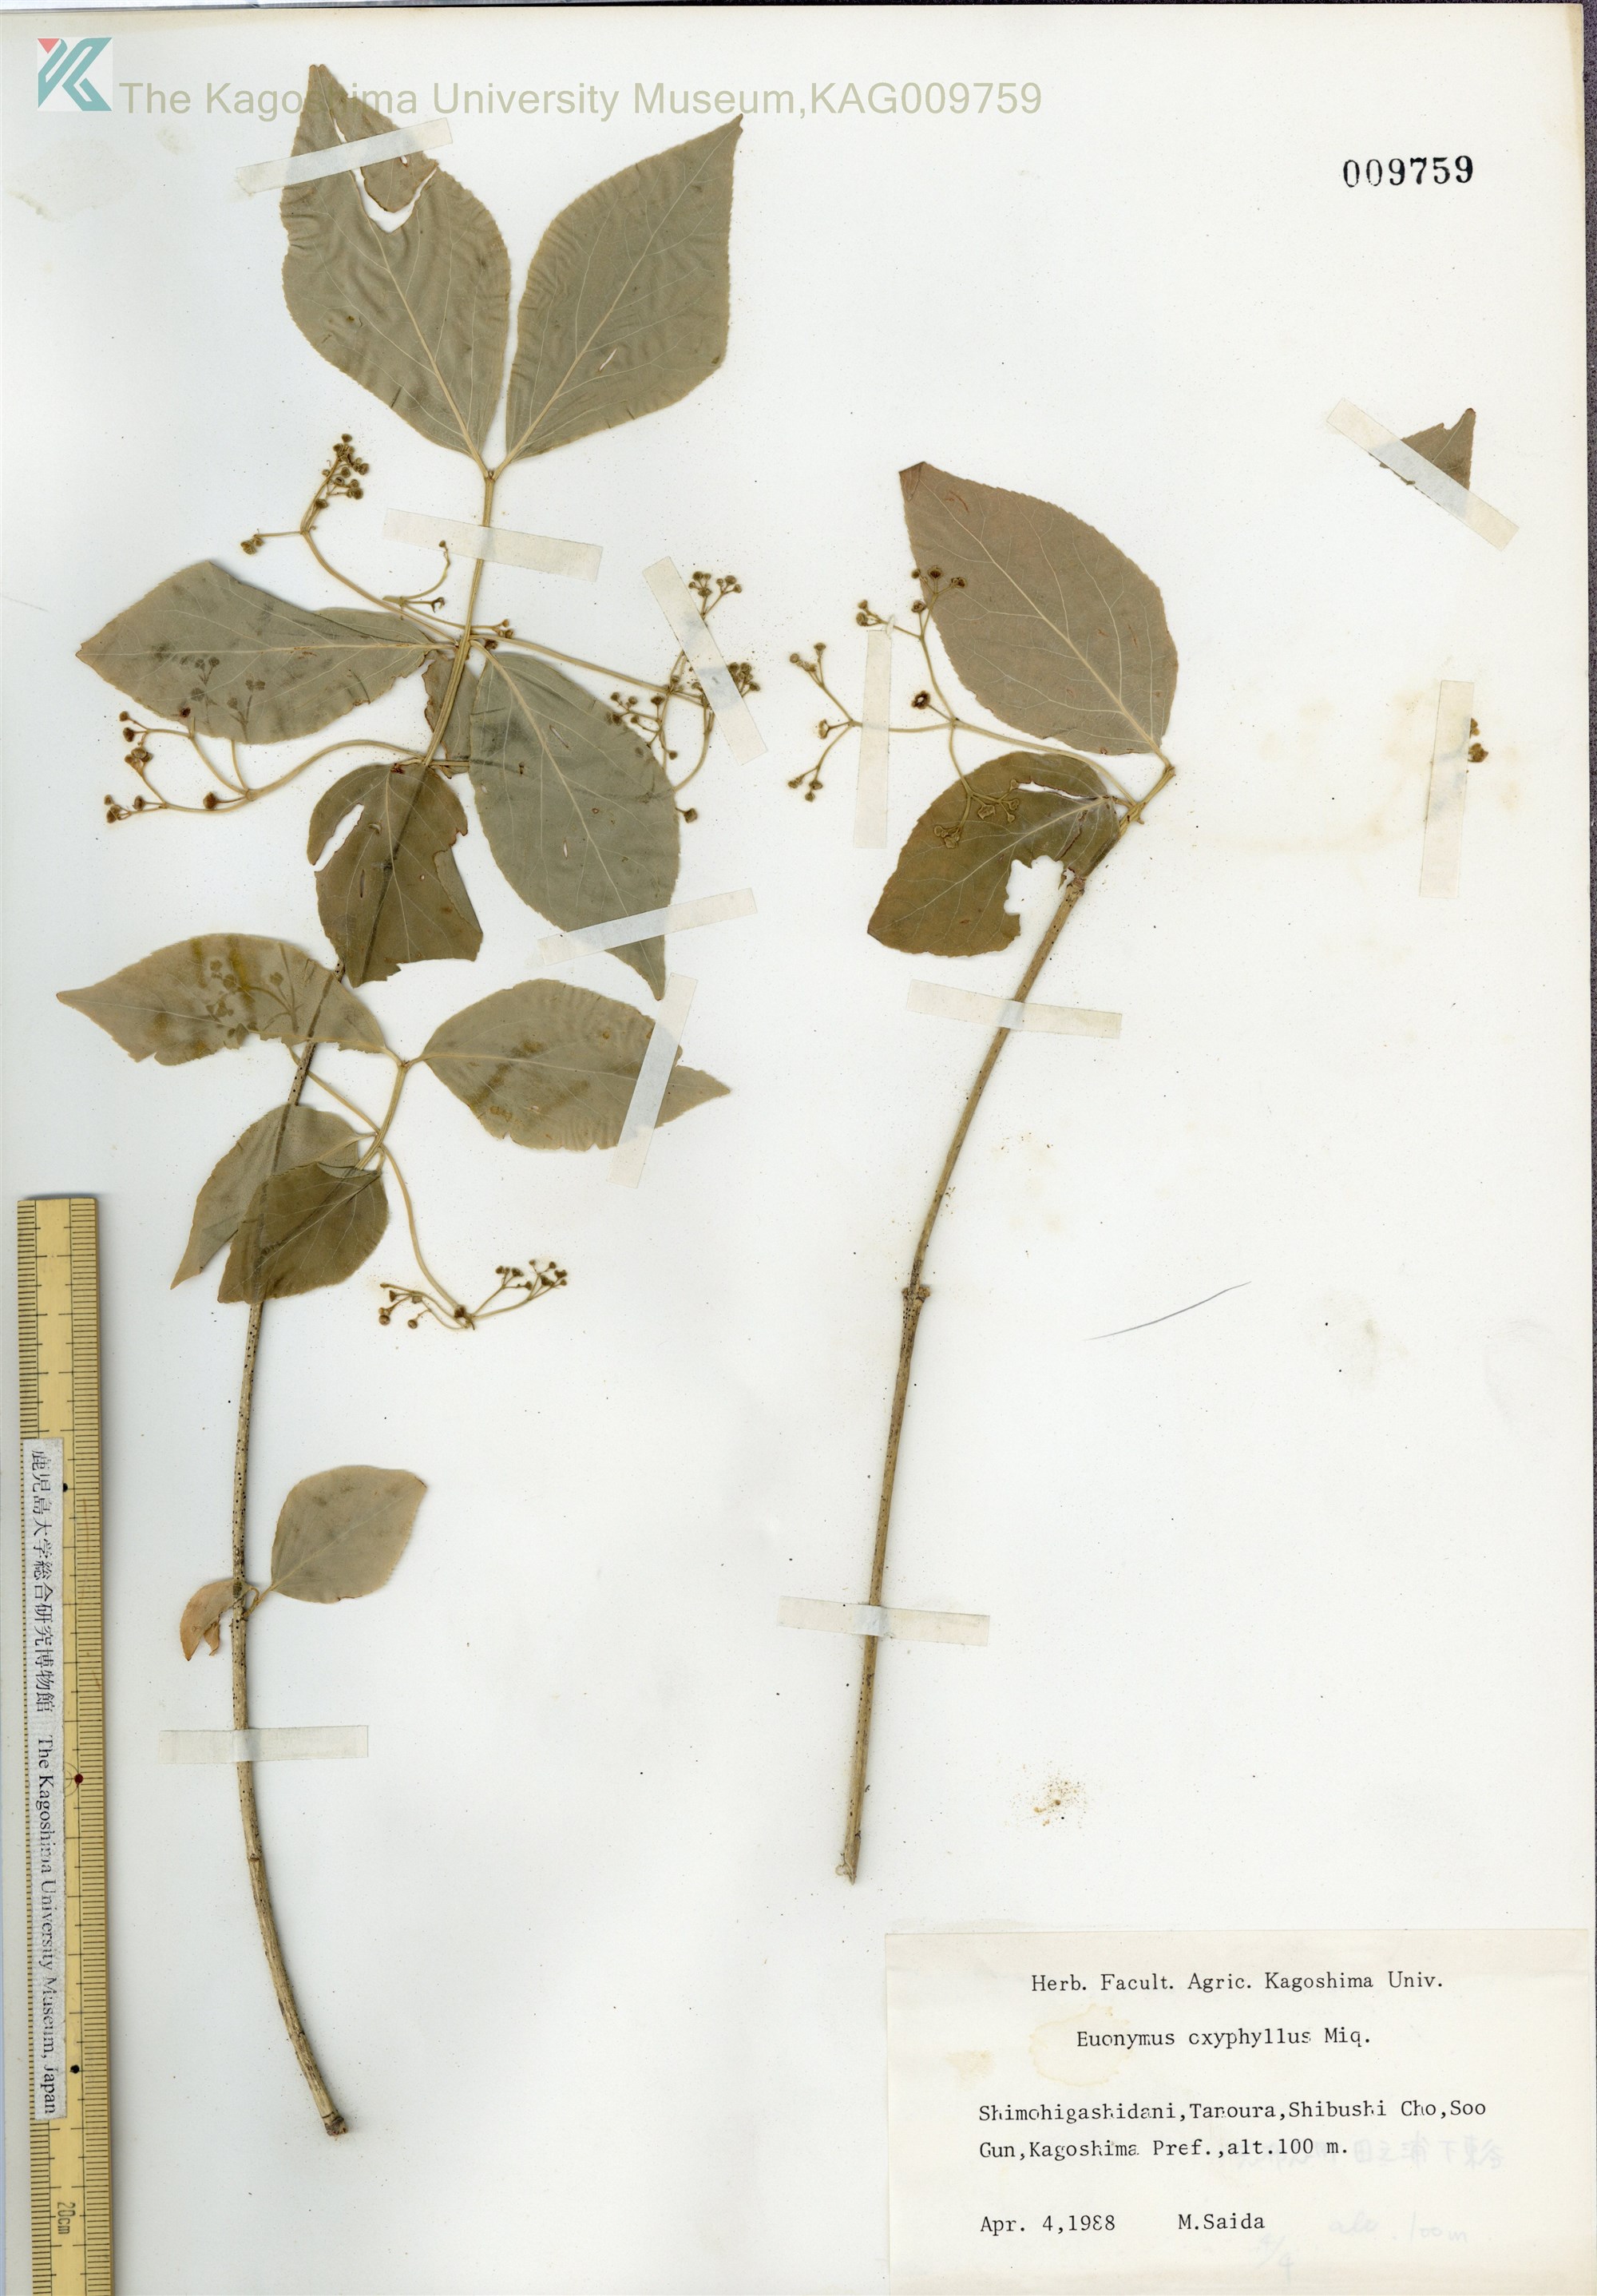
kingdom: Plantae
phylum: Tracheophyta
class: Magnoliopsida
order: Celastrales
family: Celastraceae
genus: Euonymus
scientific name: Euonymus oxyphyllus
